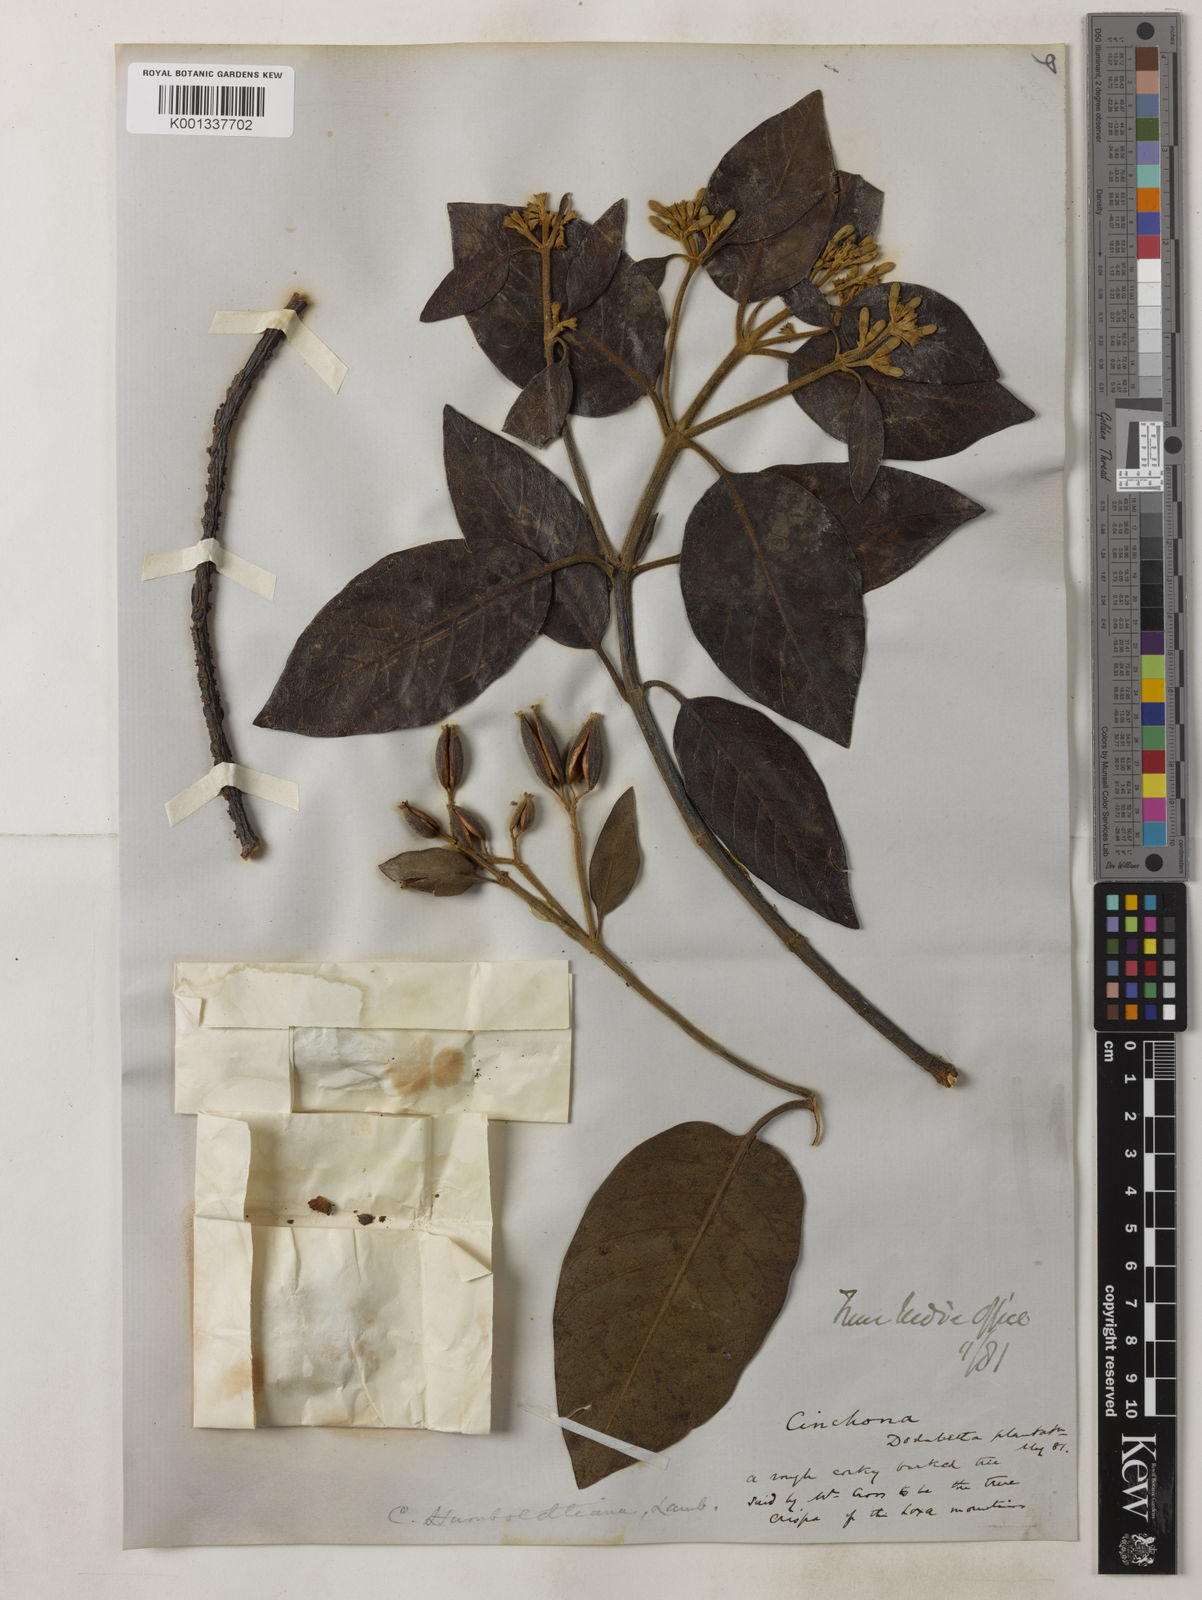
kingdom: Plantae
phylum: Tracheophyta
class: Magnoliopsida
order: Gentianales
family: Rubiaceae
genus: Cinchona
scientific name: Cinchona
